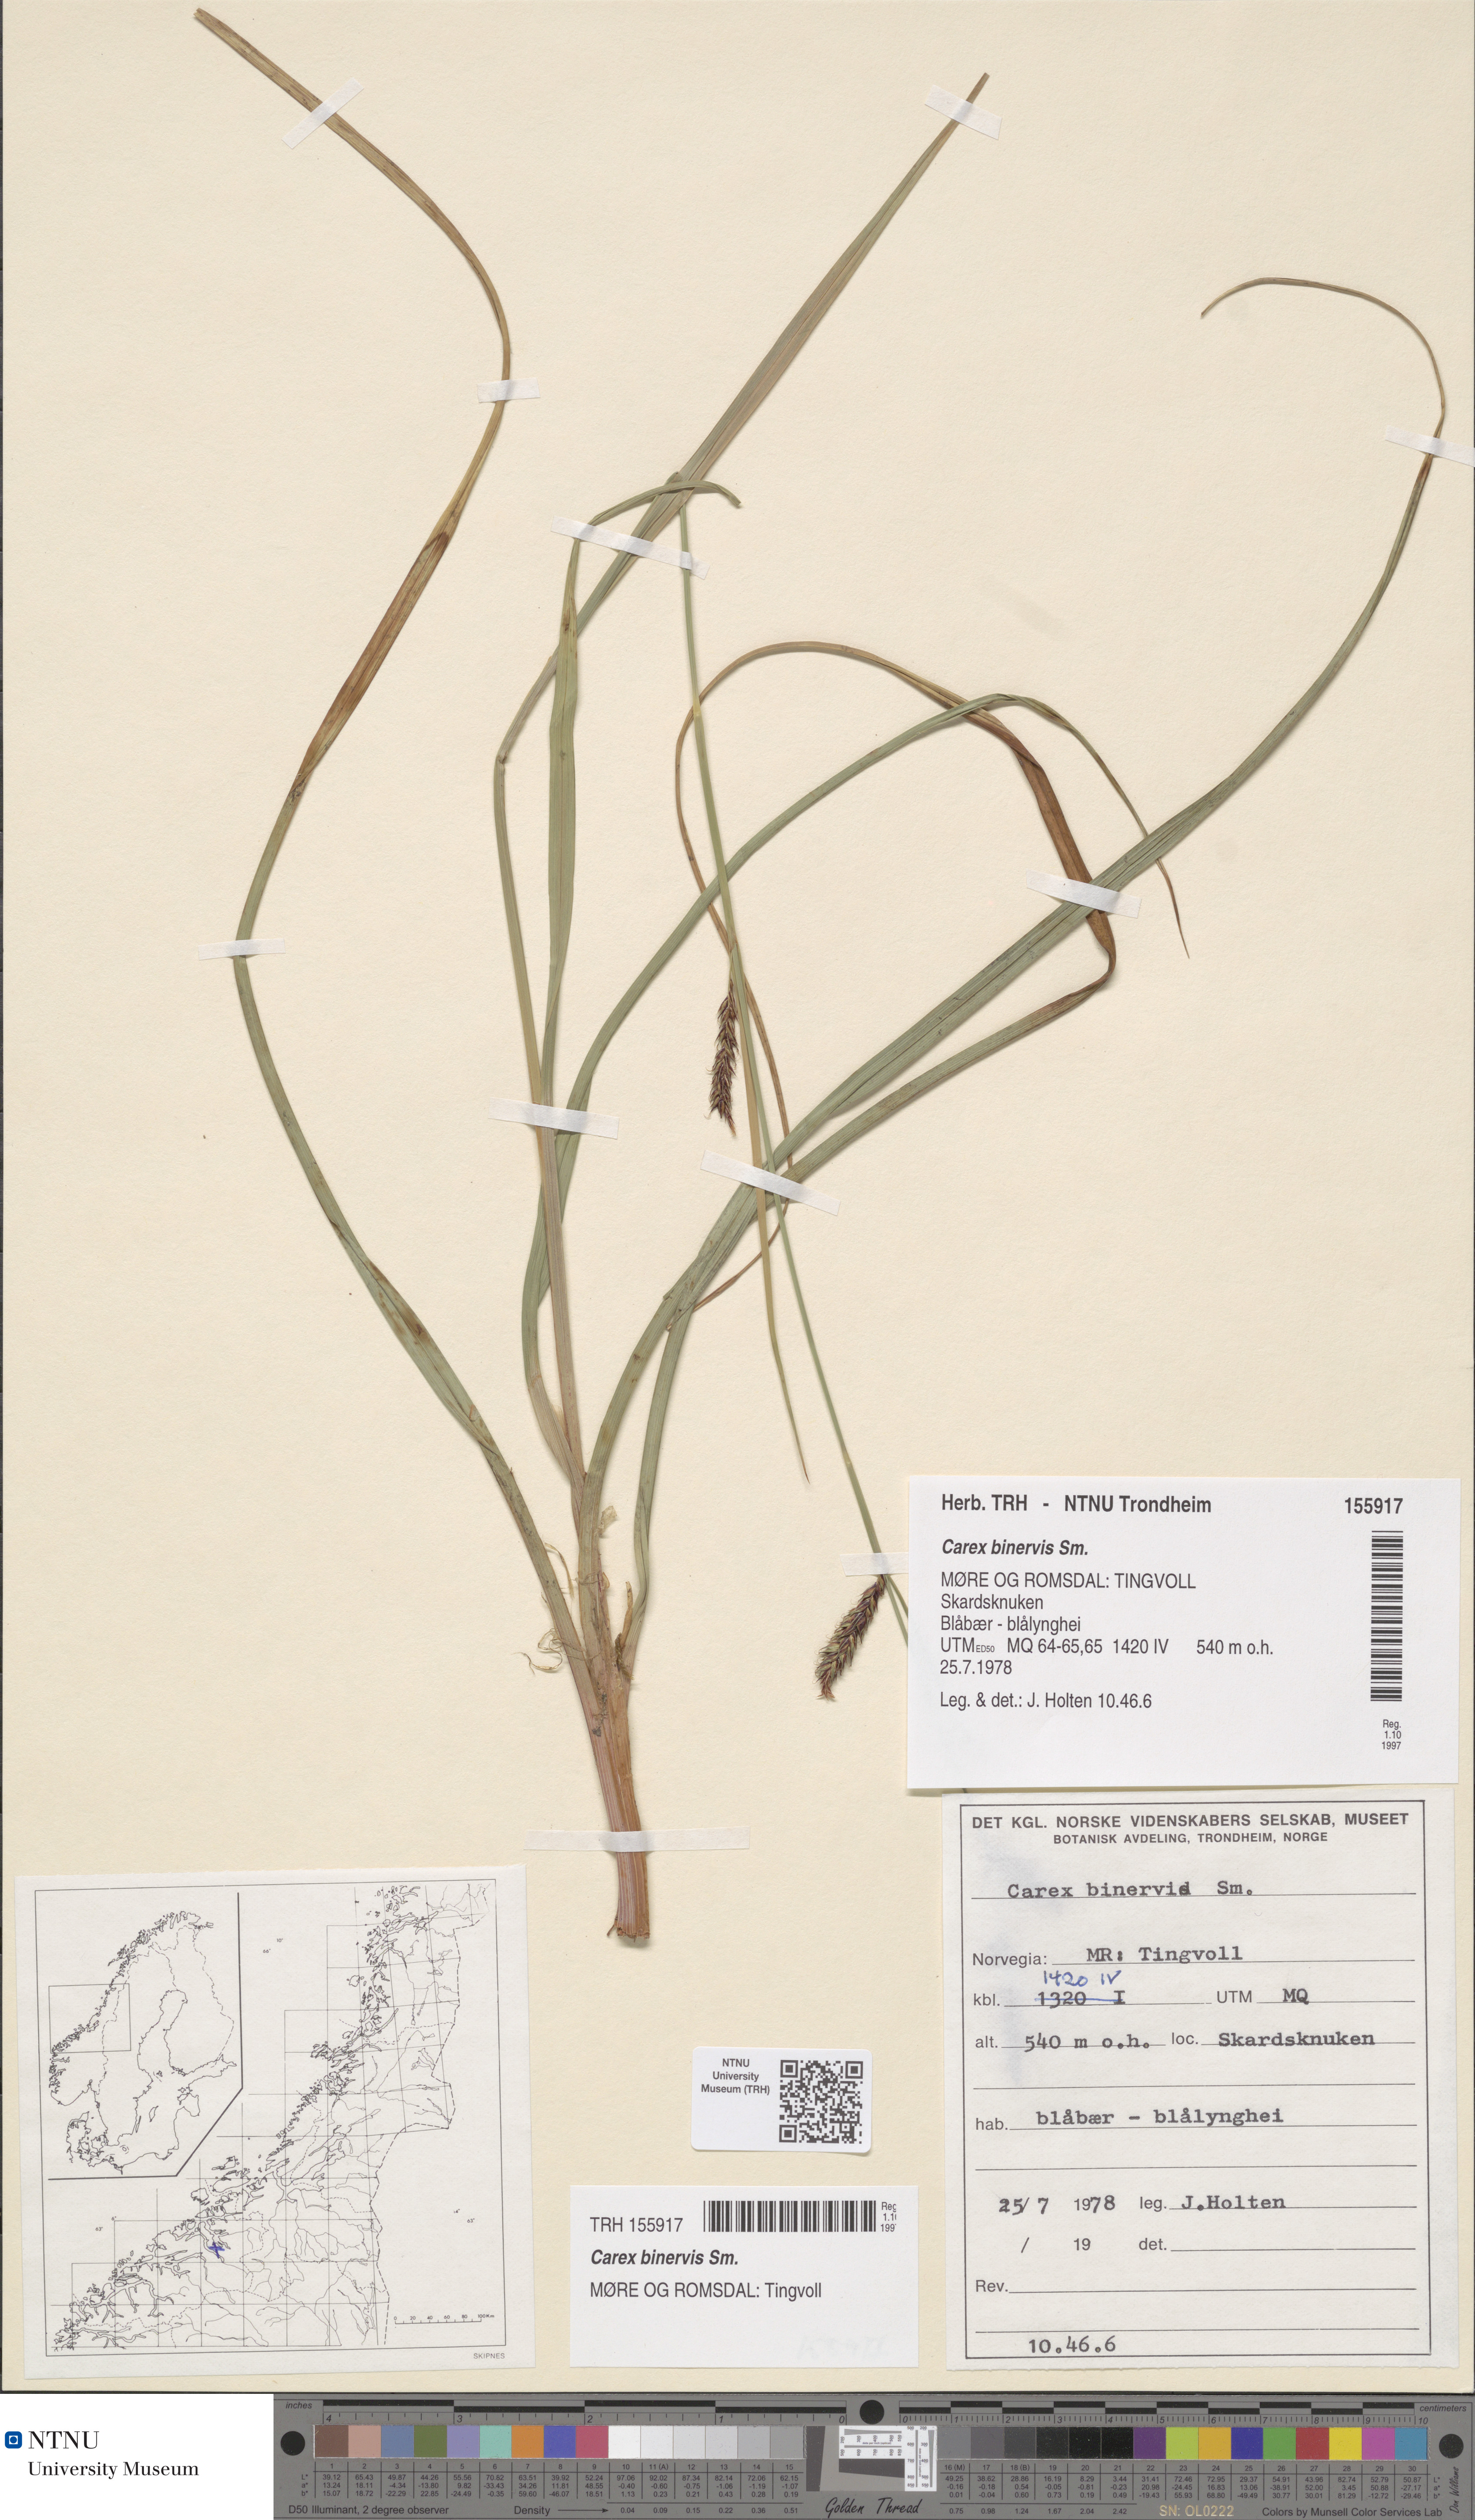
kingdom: Plantae
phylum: Tracheophyta
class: Liliopsida
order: Poales
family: Cyperaceae
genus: Carex
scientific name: Carex binervis
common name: Green-ribbed sedge
